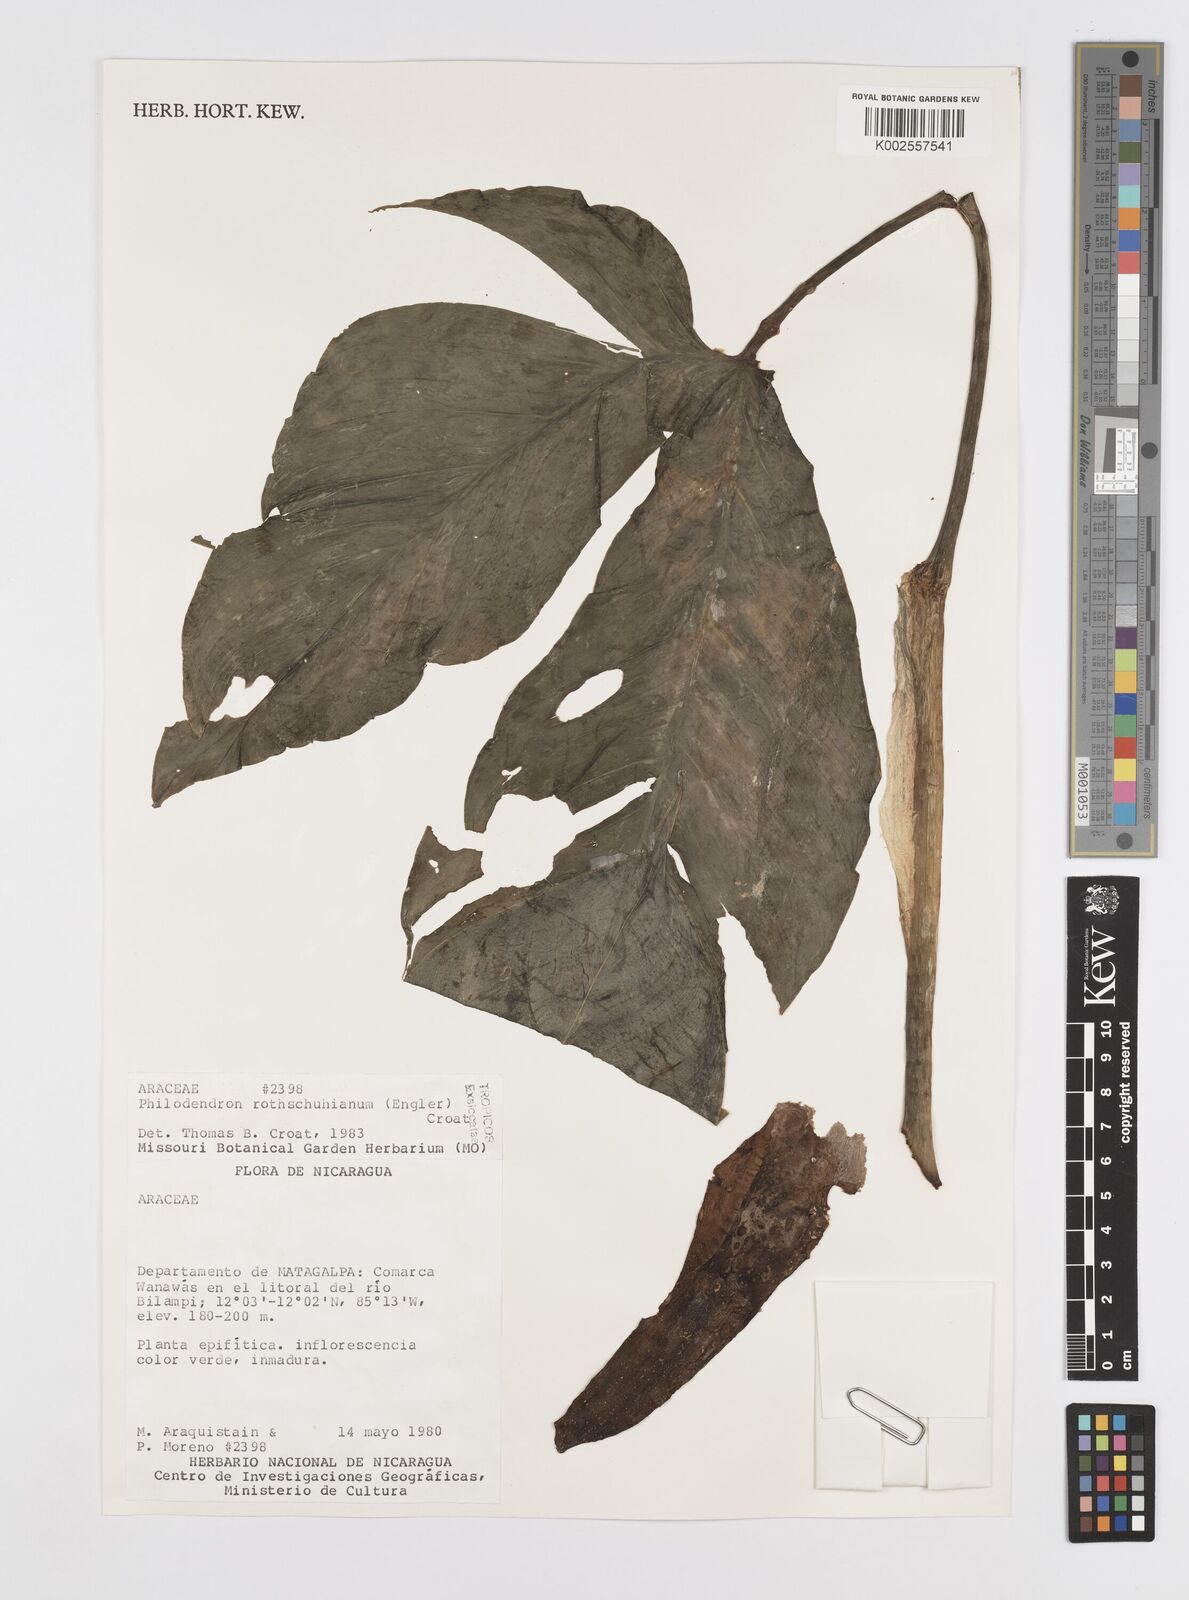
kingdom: Plantae
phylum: Tracheophyta
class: Liliopsida
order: Alismatales
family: Araceae
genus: Philodendron
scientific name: Philodendron rothschuhianum
